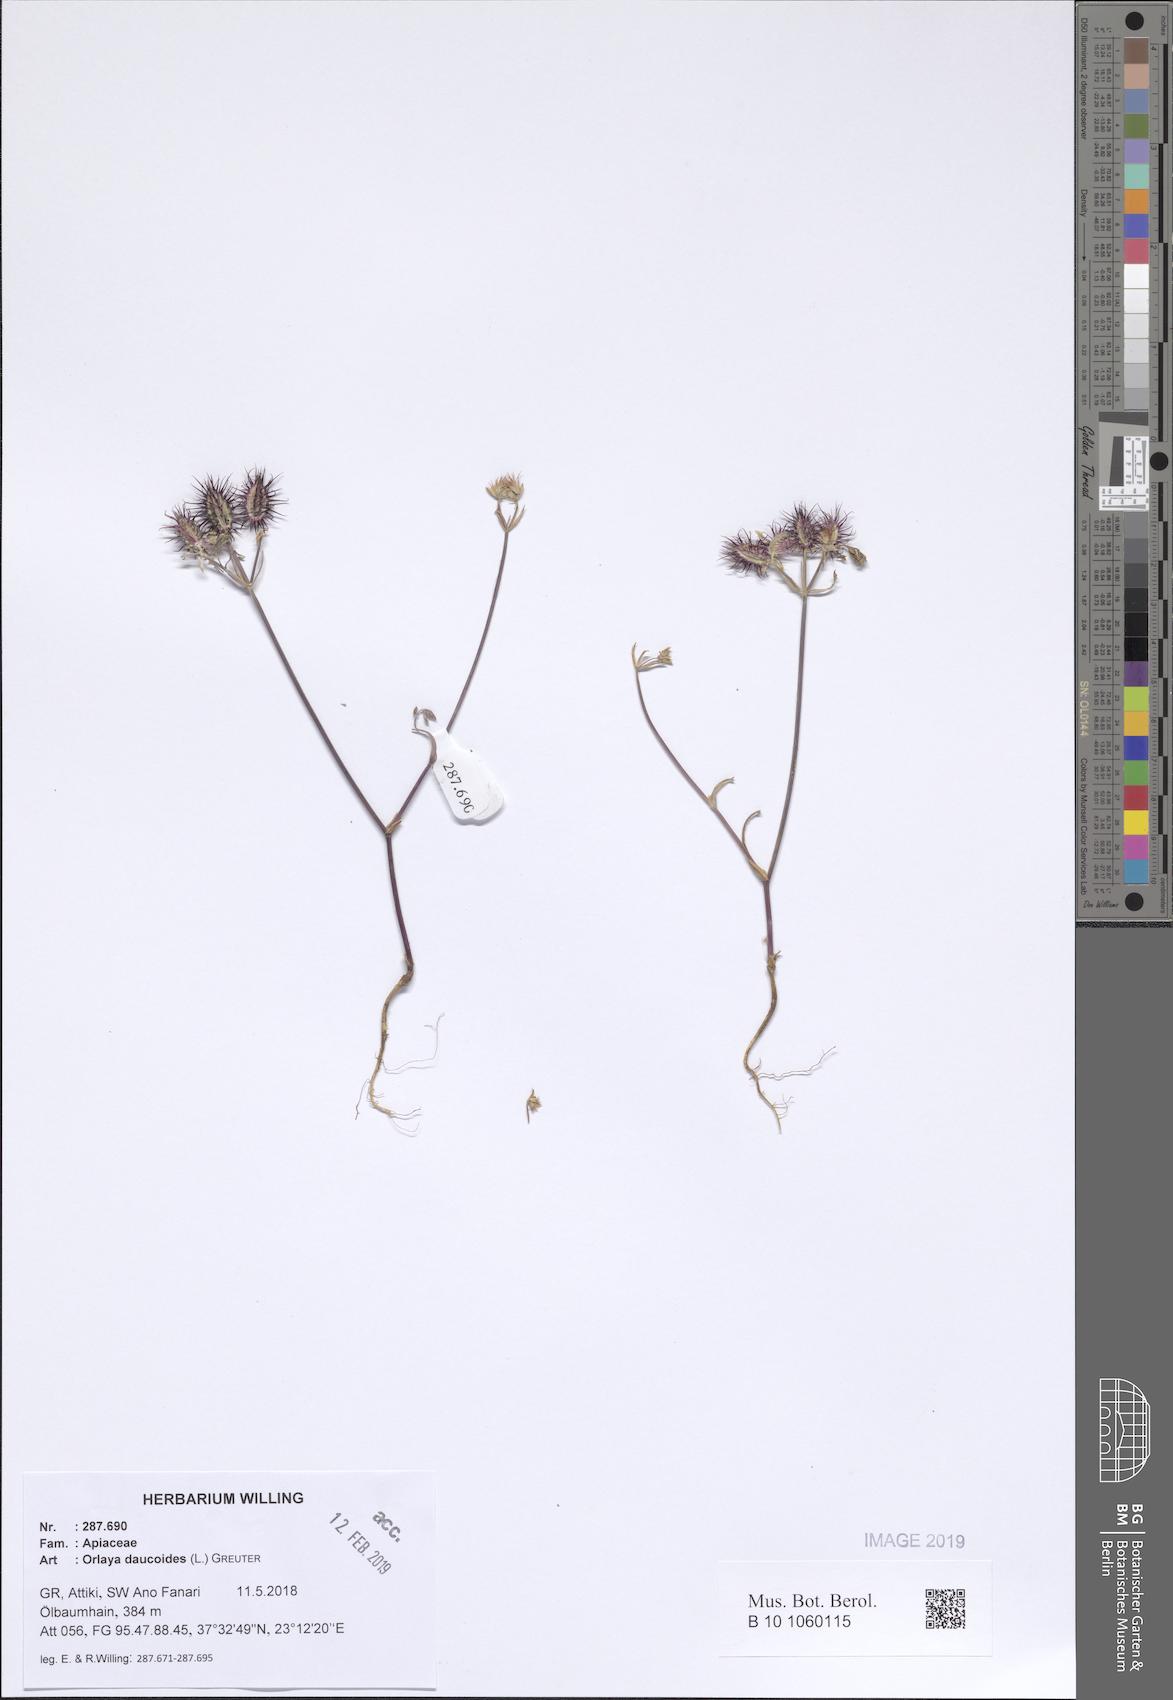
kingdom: Plantae
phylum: Tracheophyta
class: Magnoliopsida
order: Apiales
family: Apiaceae
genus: Orlaya
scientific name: Orlaya daucoides
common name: Flat-fruit orlaya
